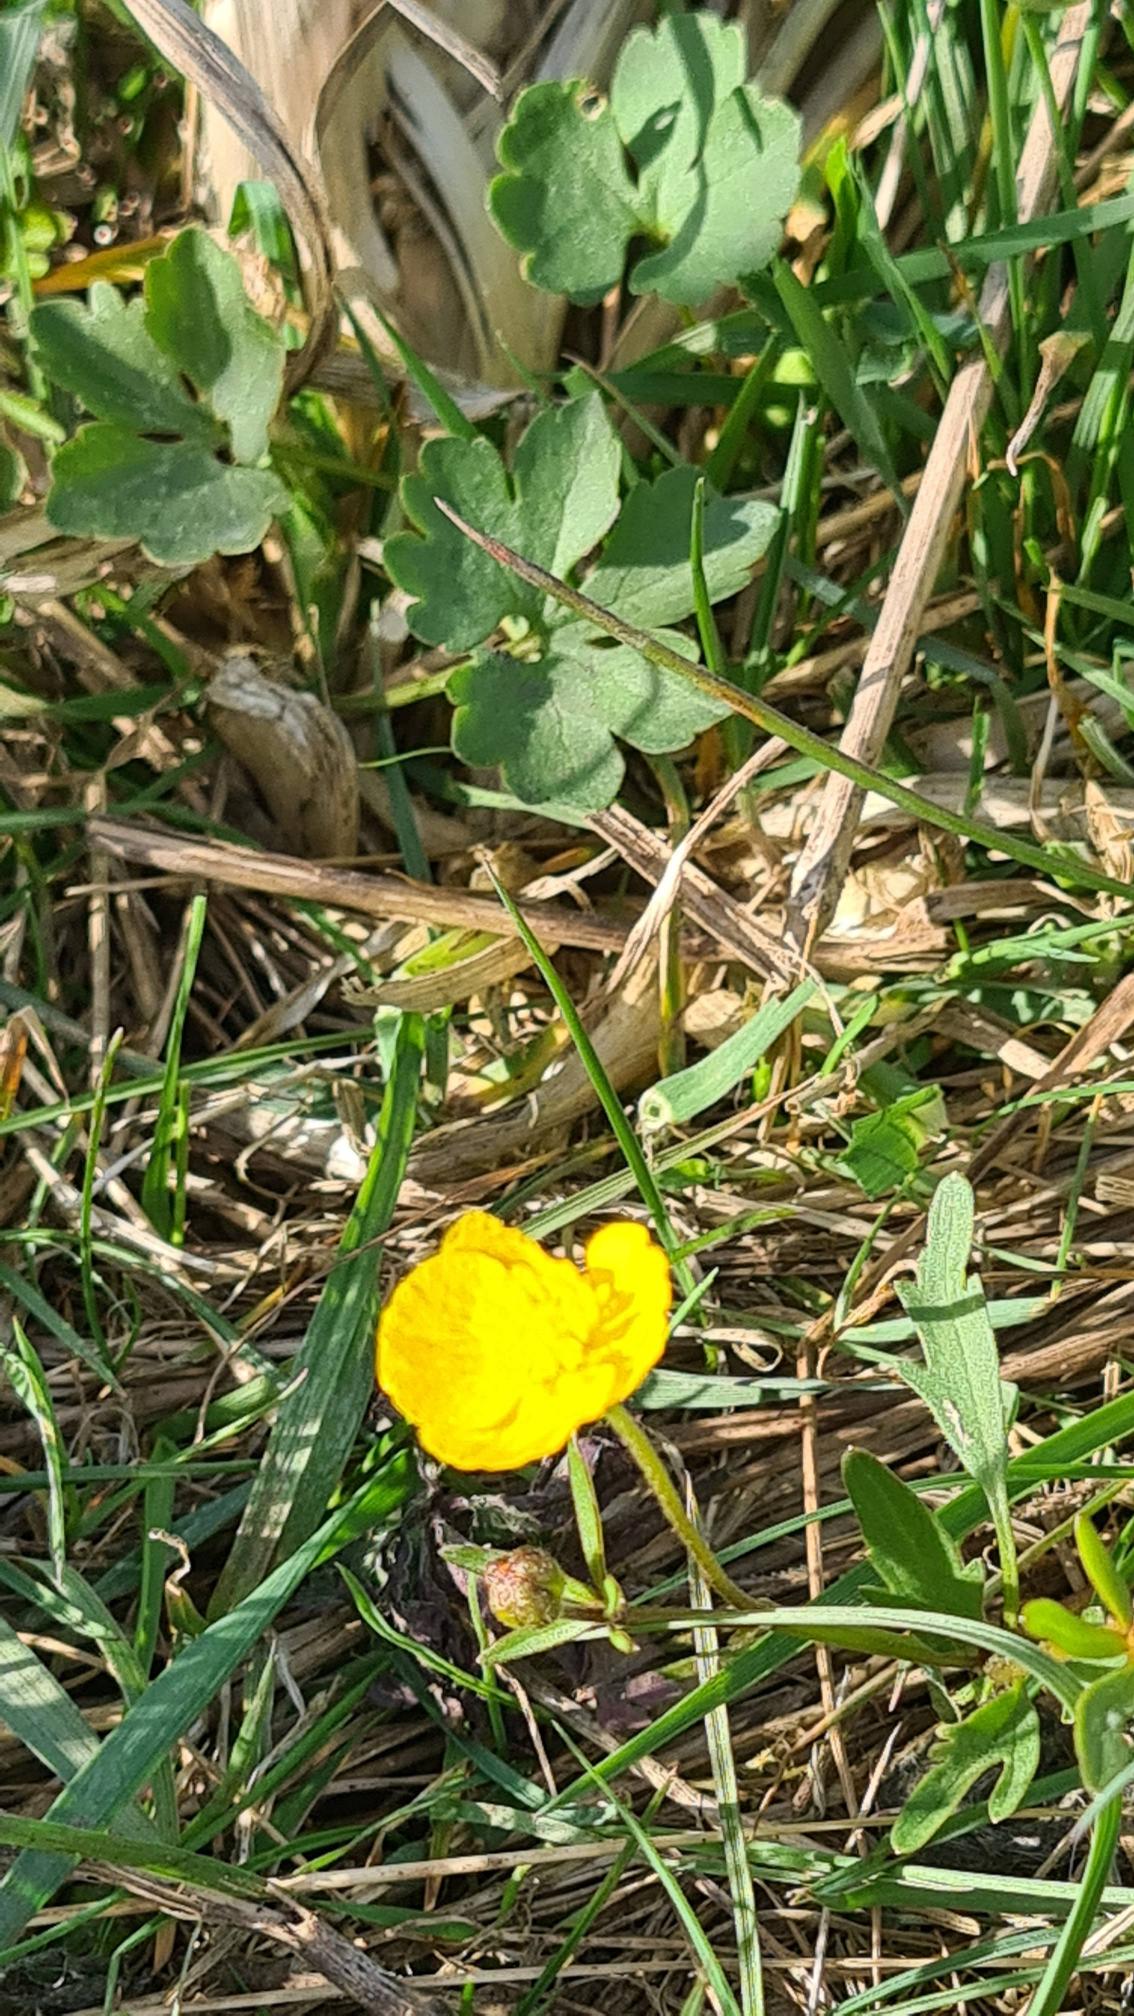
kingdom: Plantae
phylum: Tracheophyta
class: Magnoliopsida
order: Ranunculales
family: Ranunculaceae
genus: Ranunculus
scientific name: Ranunculus auricomus
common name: Nyrebladet ranunkel
